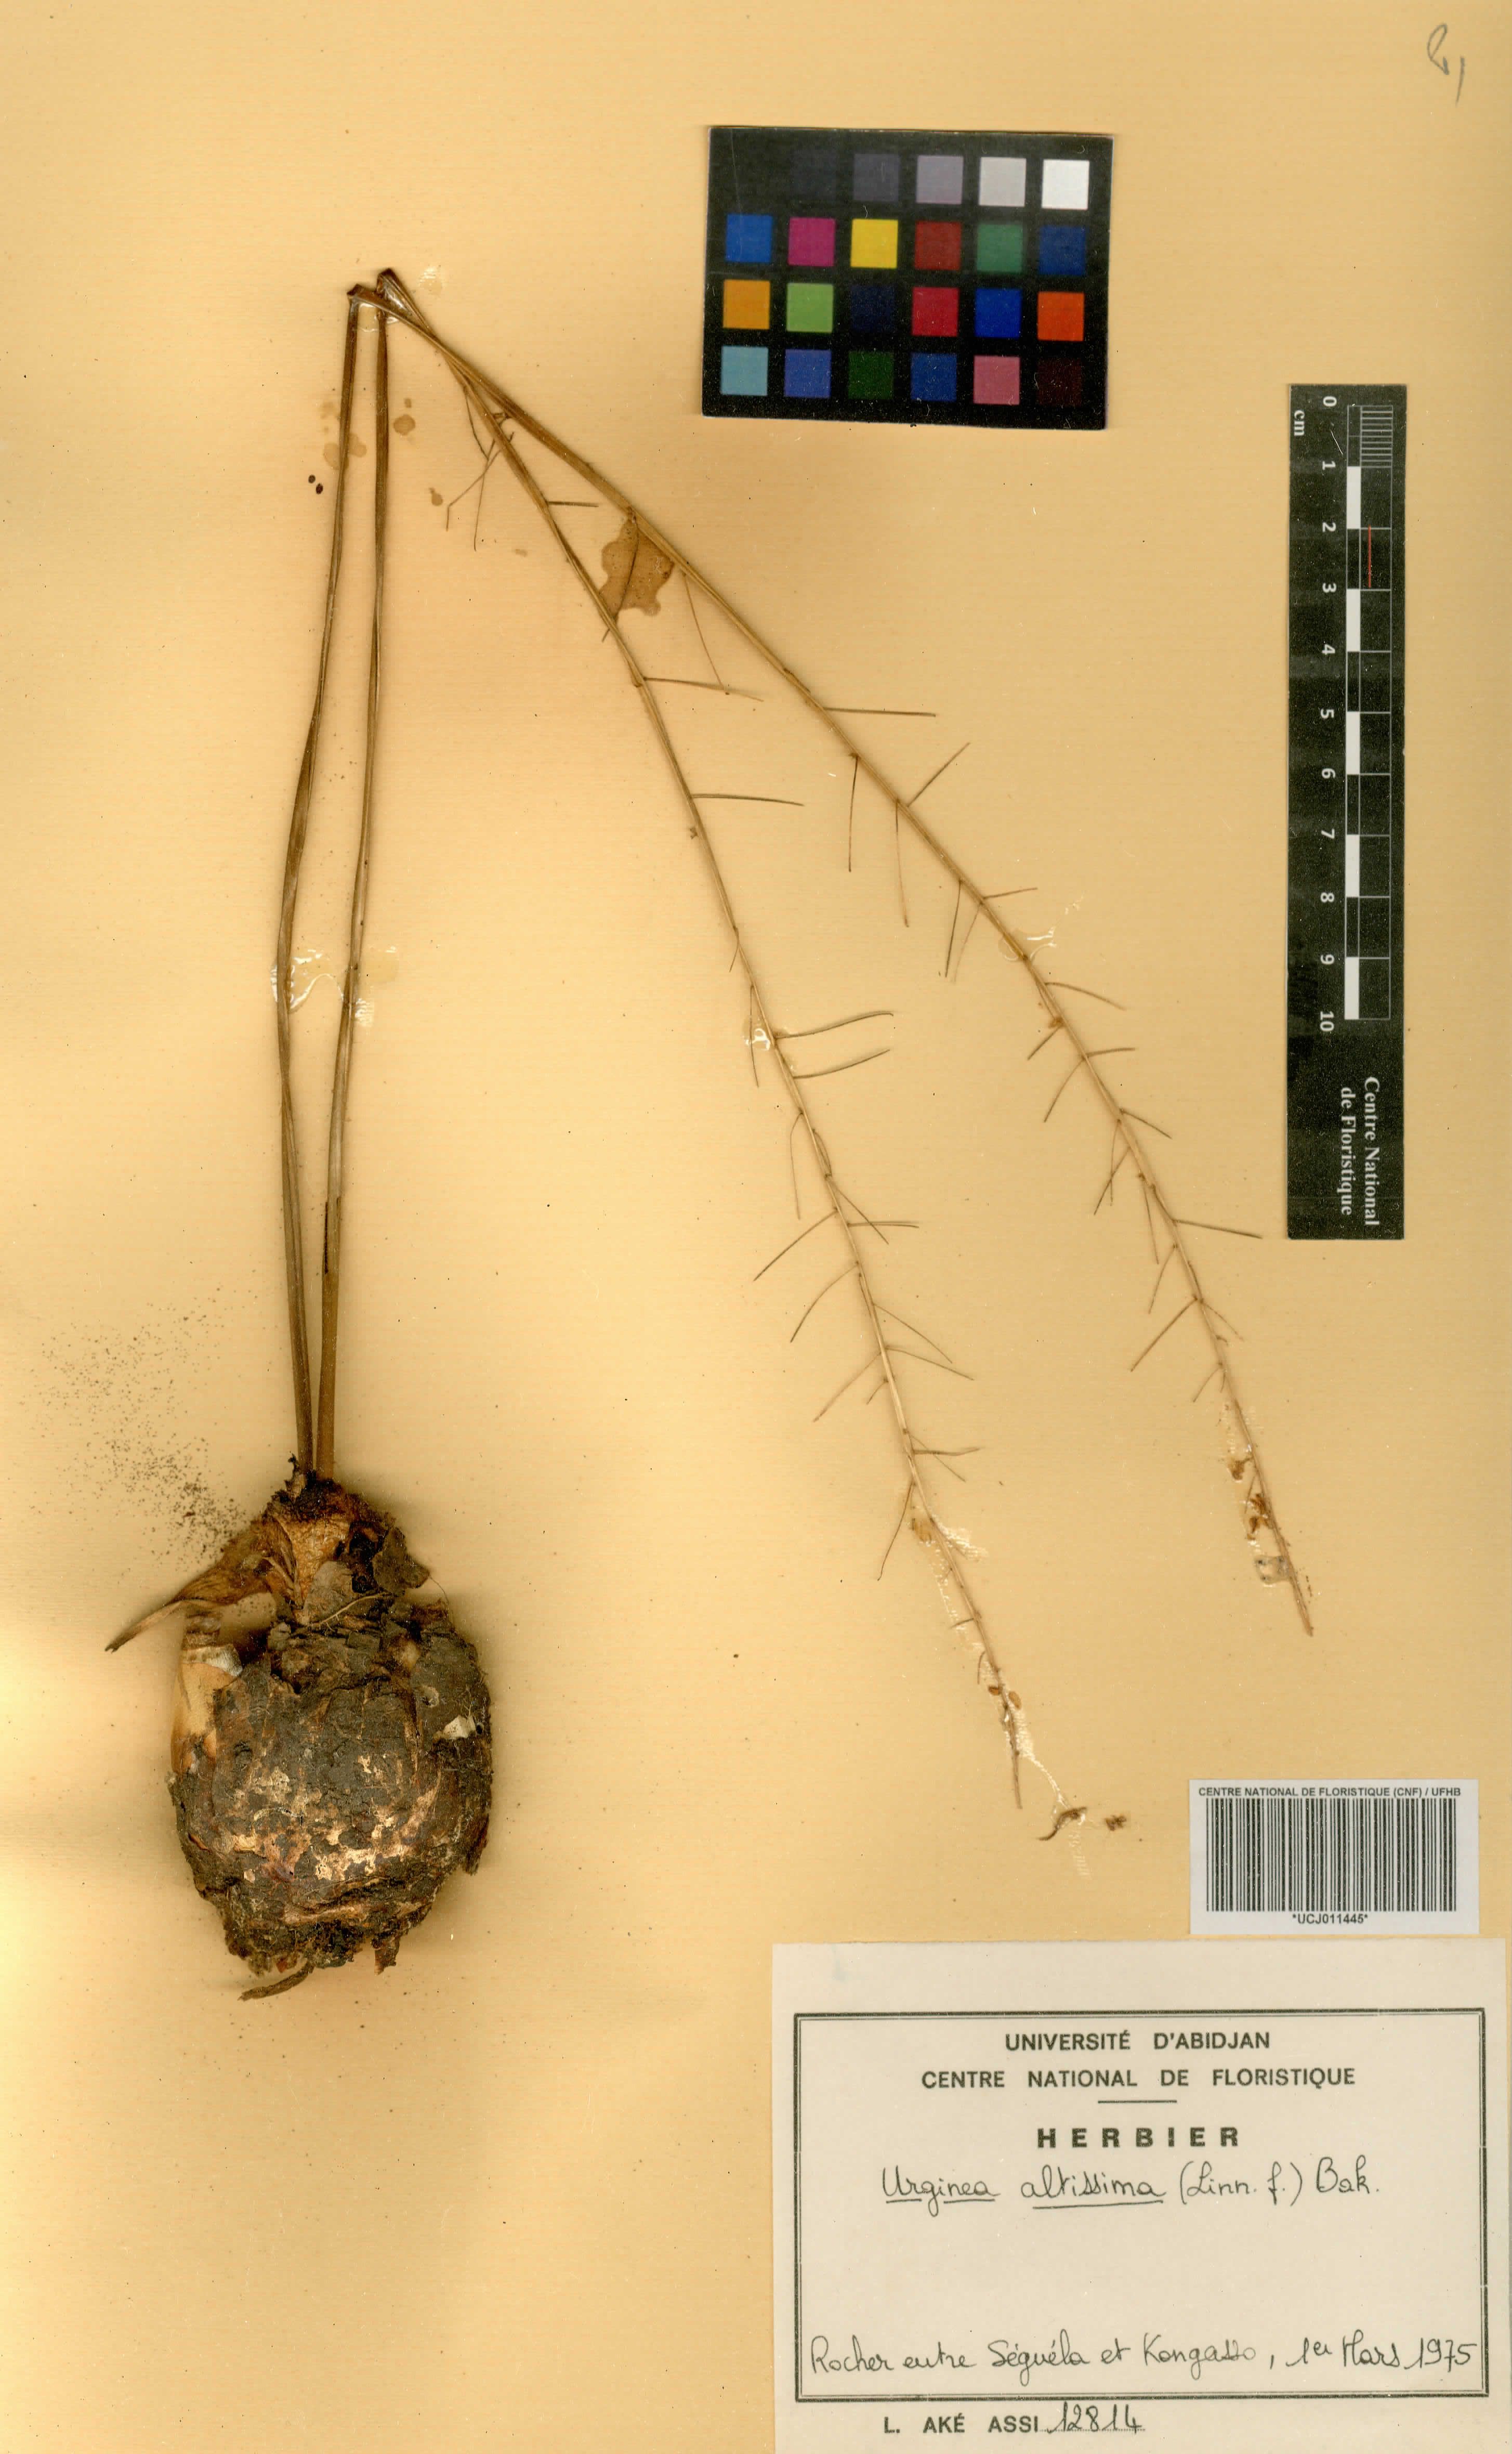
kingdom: Plantae
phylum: Tracheophyta
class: Liliopsida
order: Asparagales
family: Asparagaceae
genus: Drimia
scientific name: Drimia altissima
